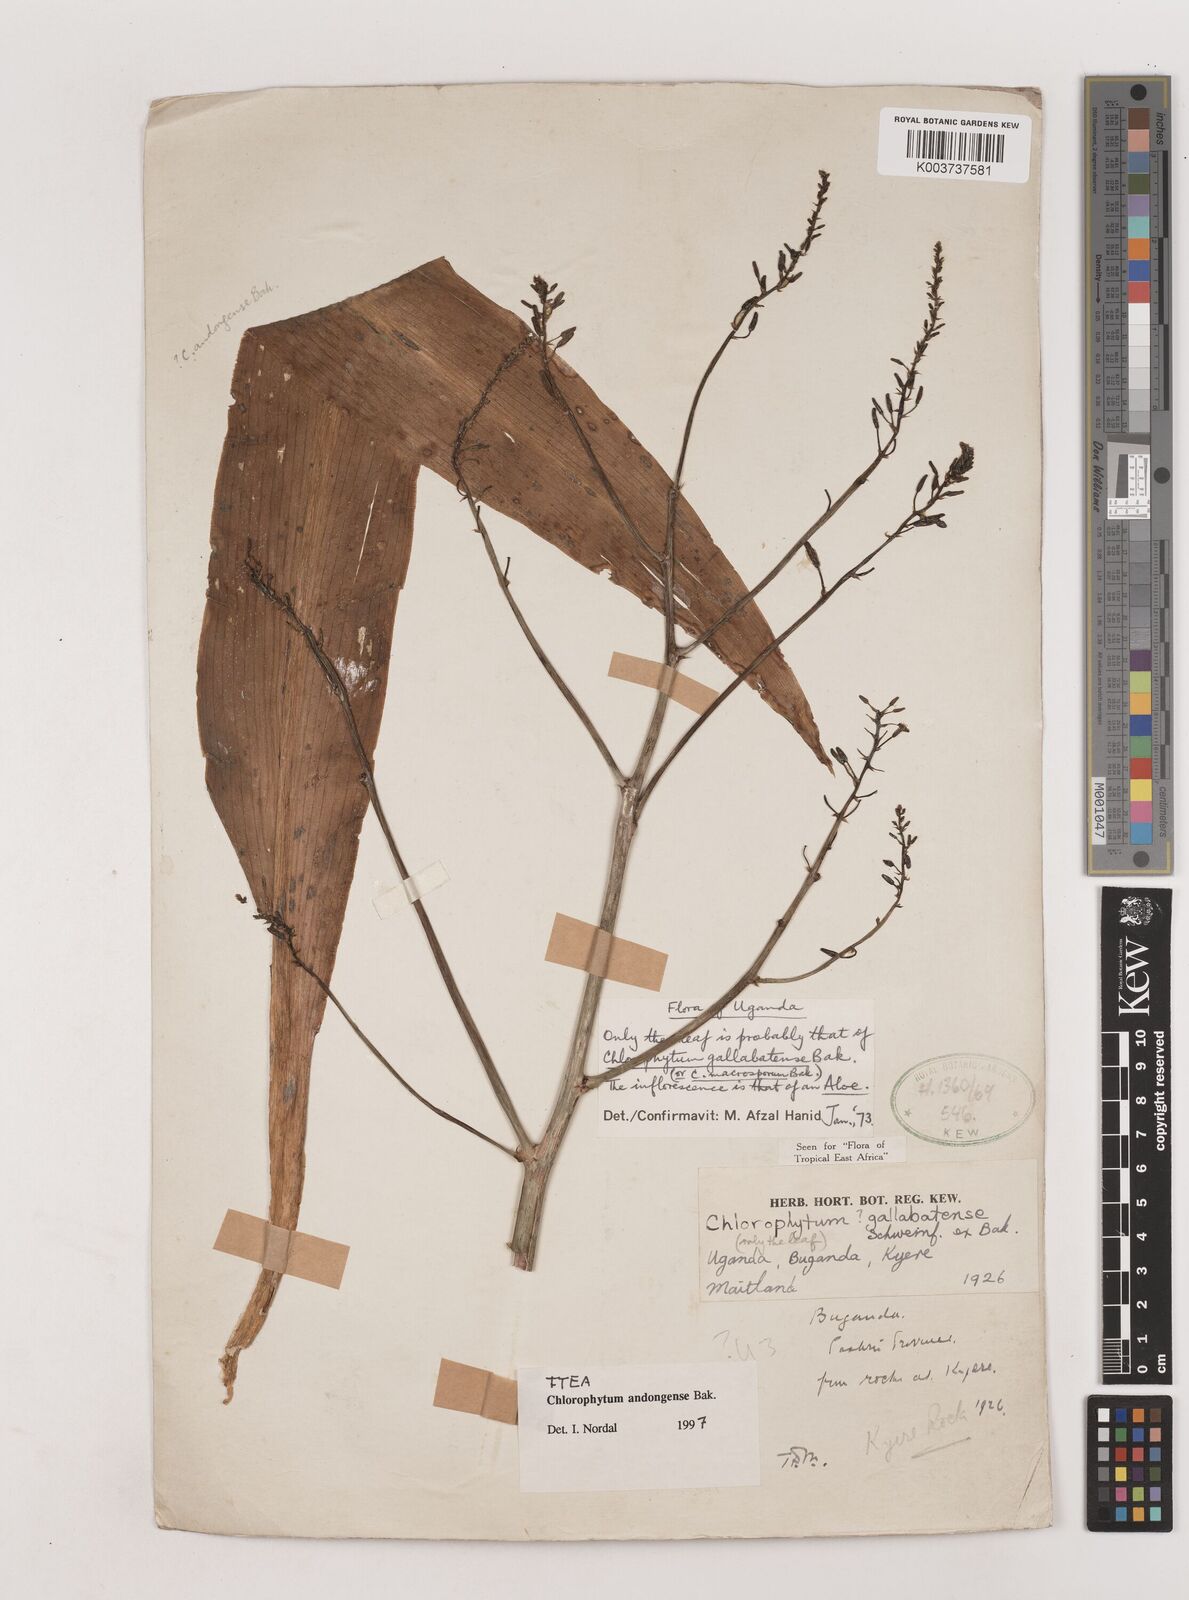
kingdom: Plantae
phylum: Tracheophyta
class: Liliopsida
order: Asparagales
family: Asparagaceae
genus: Chlorophytum
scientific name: Chlorophytum andongense
